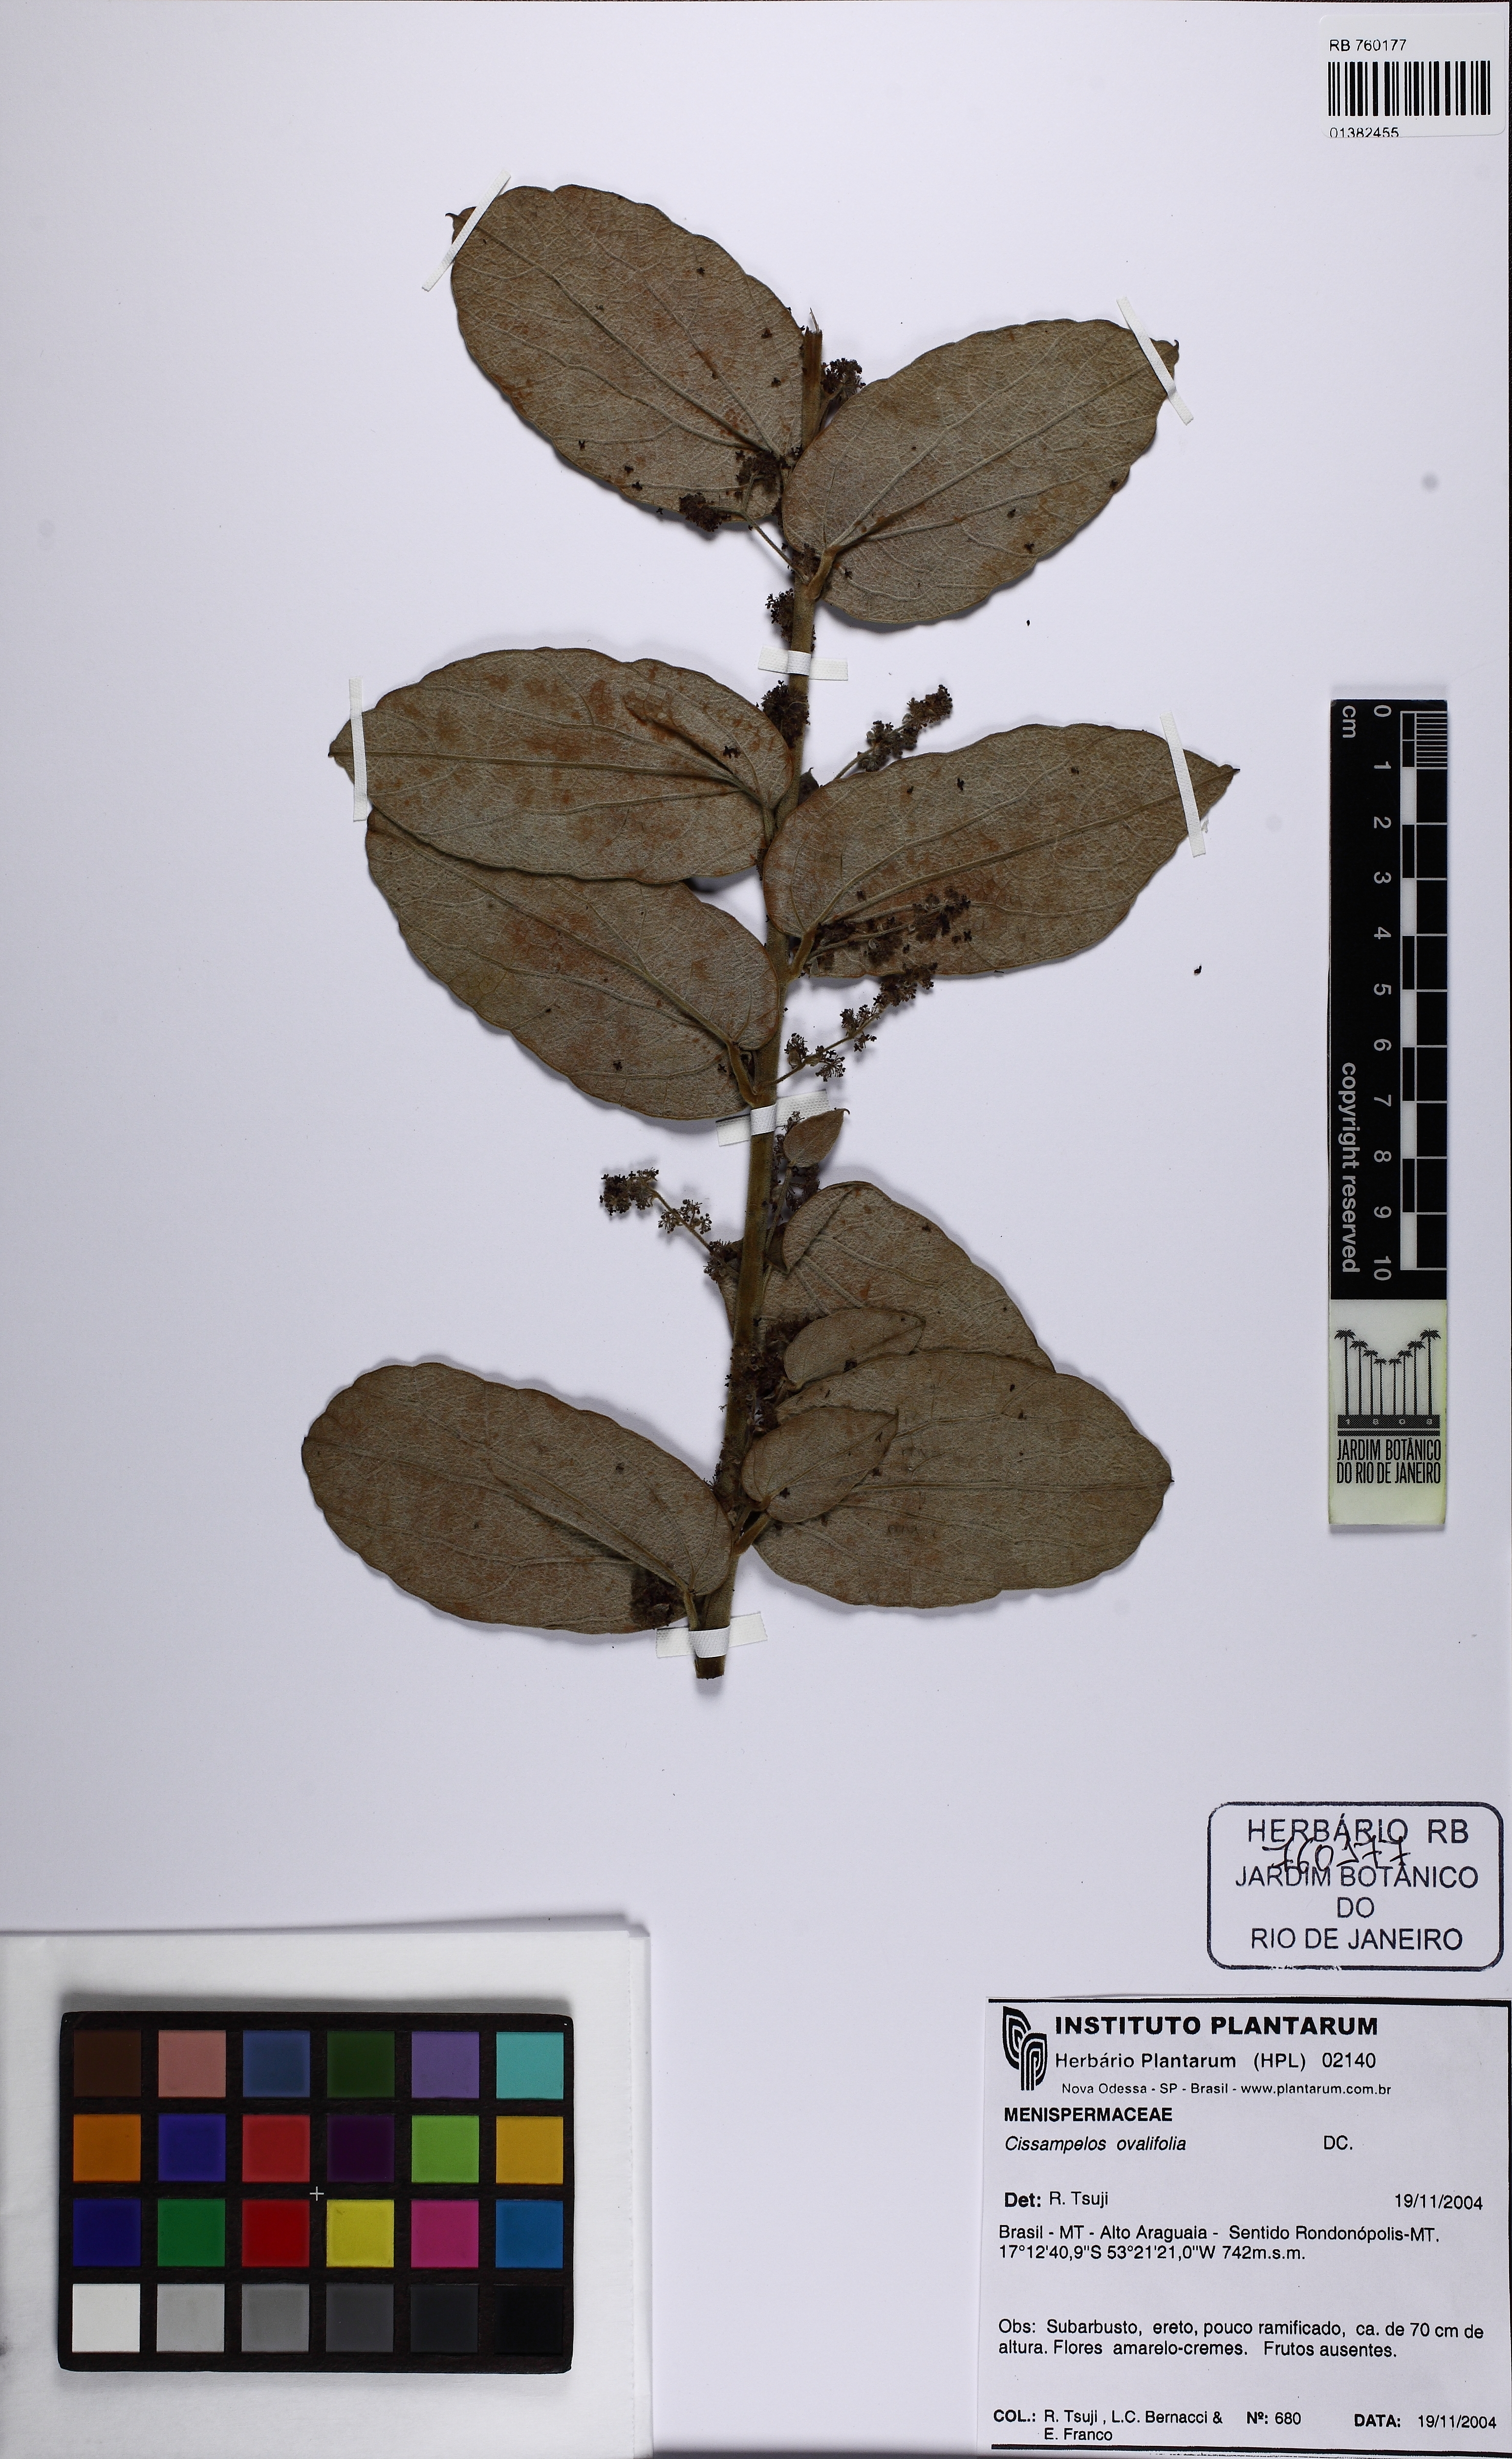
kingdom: Plantae
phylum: Tracheophyta
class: Magnoliopsida
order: Ranunculales
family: Menispermaceae
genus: Cissampelos
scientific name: Cissampelos ovalifolia
